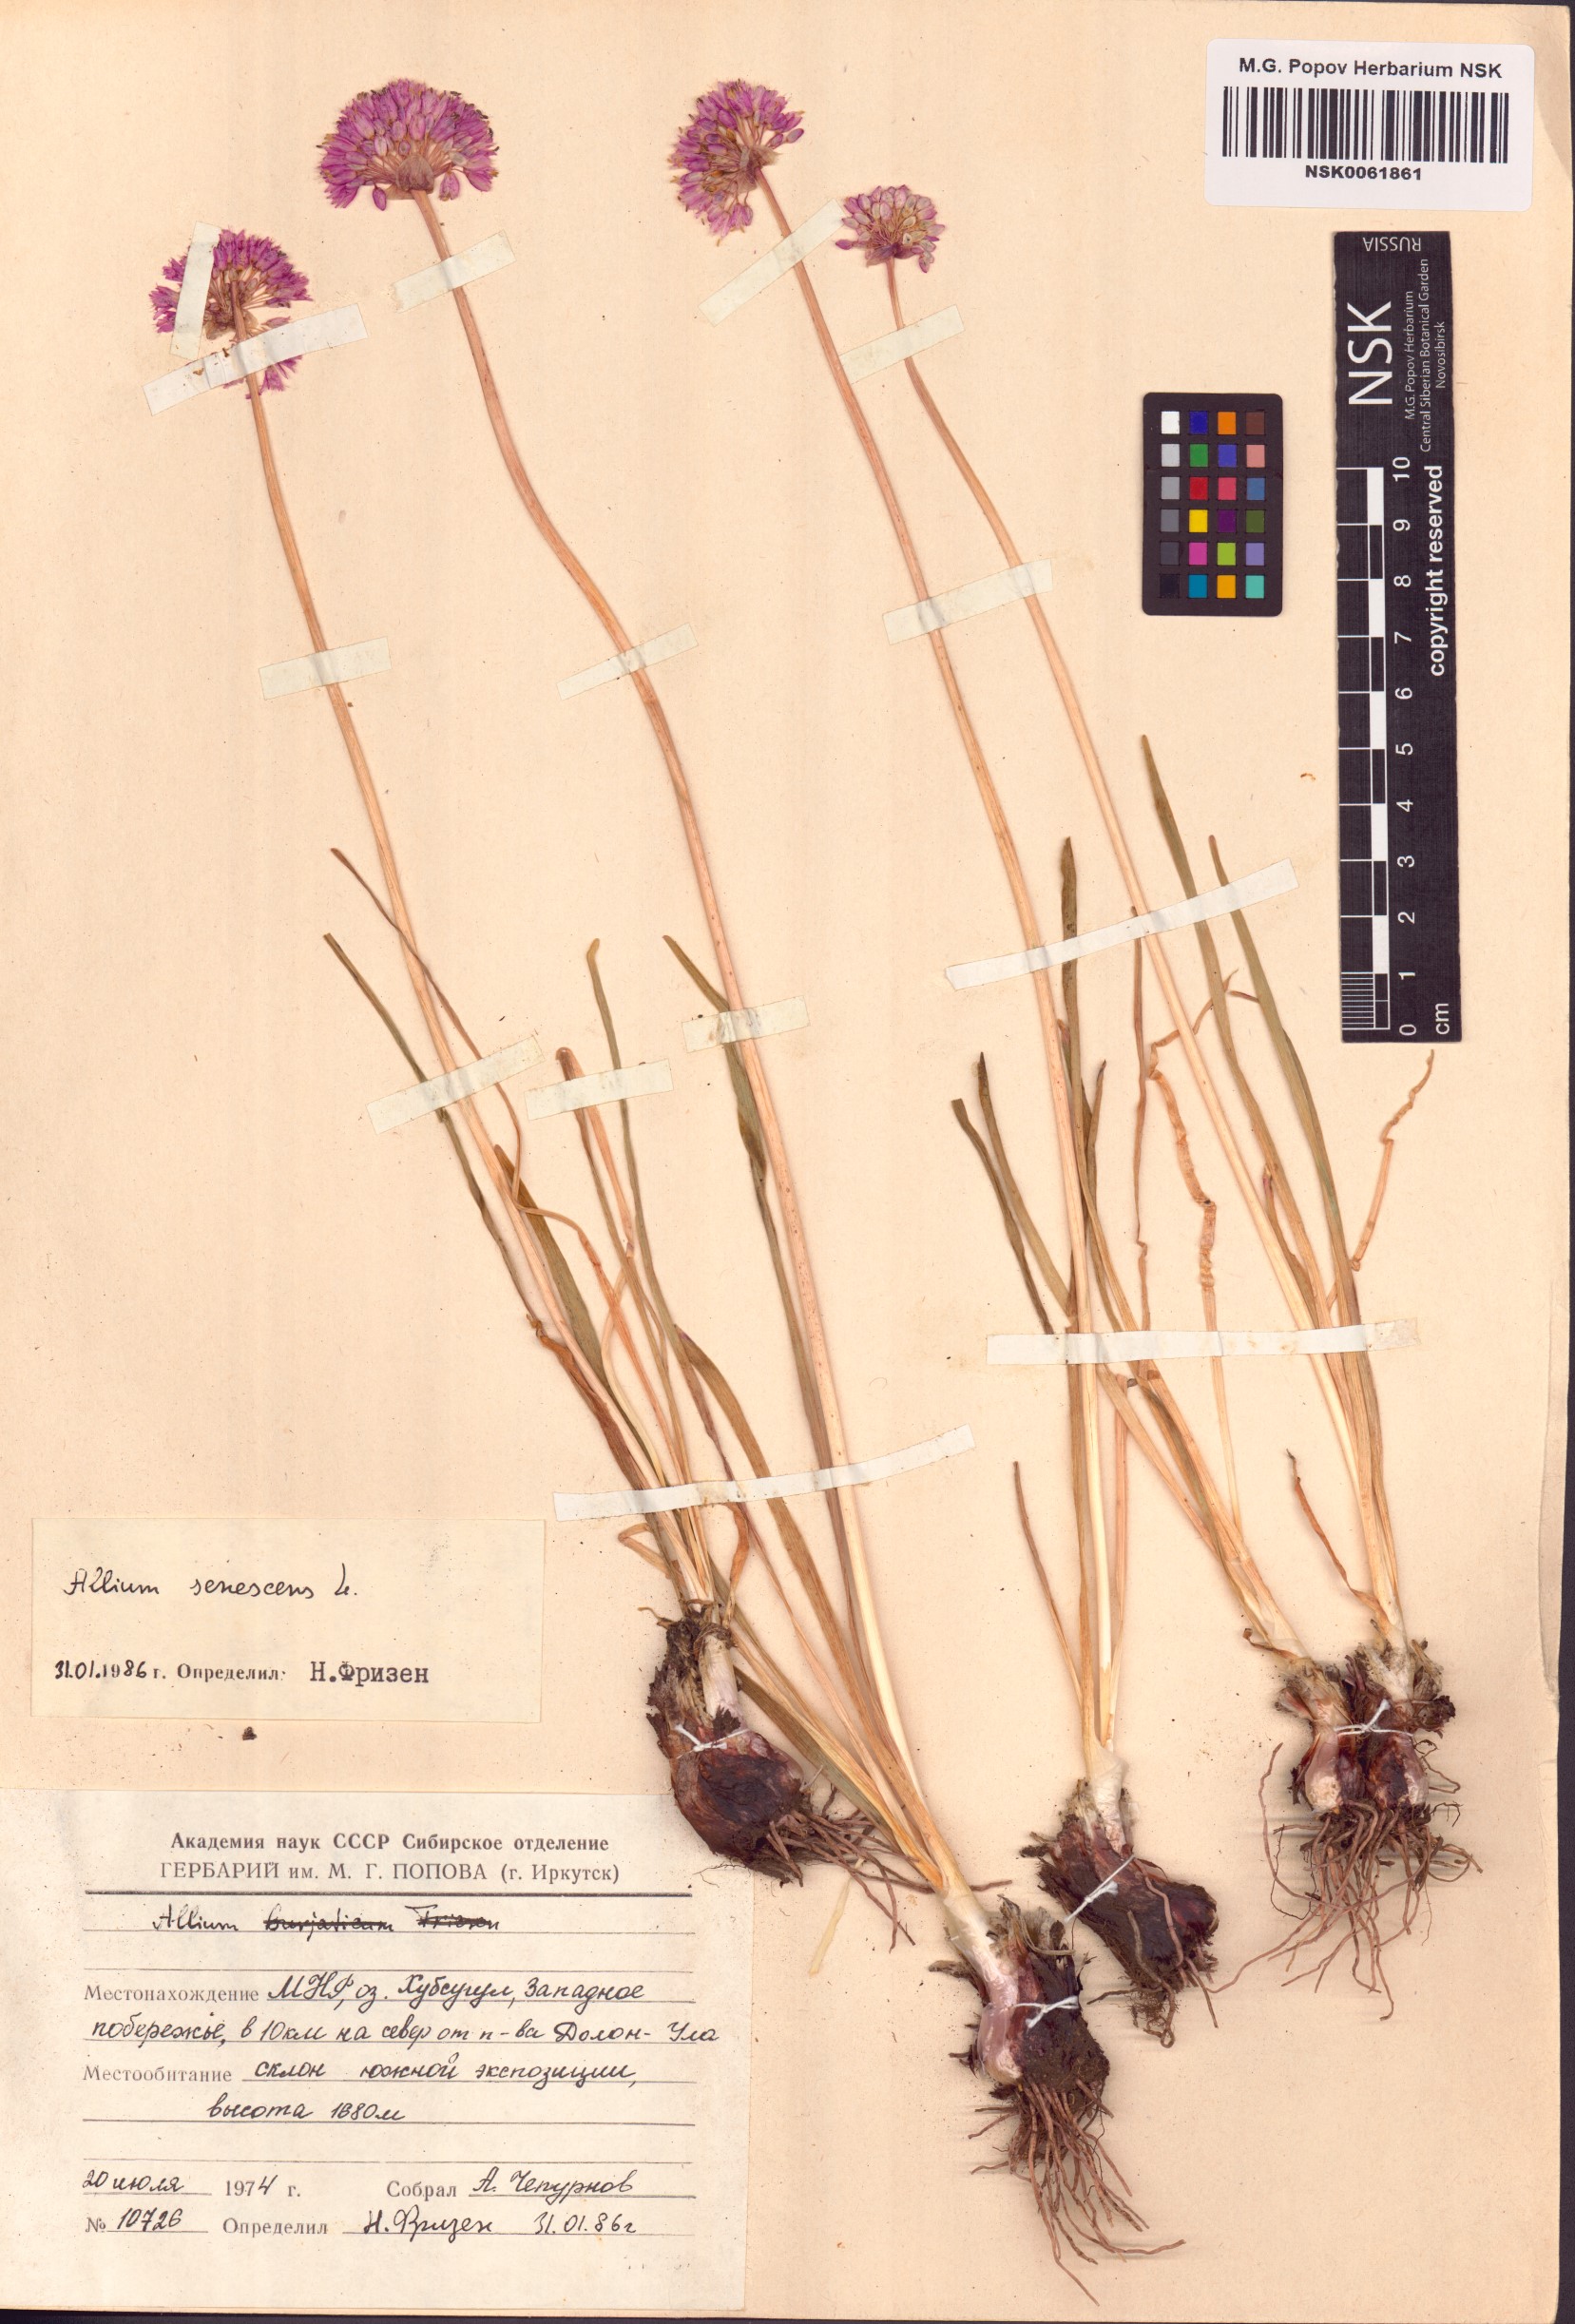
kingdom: Plantae
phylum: Tracheophyta
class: Liliopsida
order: Asparagales
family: Amaryllidaceae
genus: Allium
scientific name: Allium senescens
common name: German garlic
